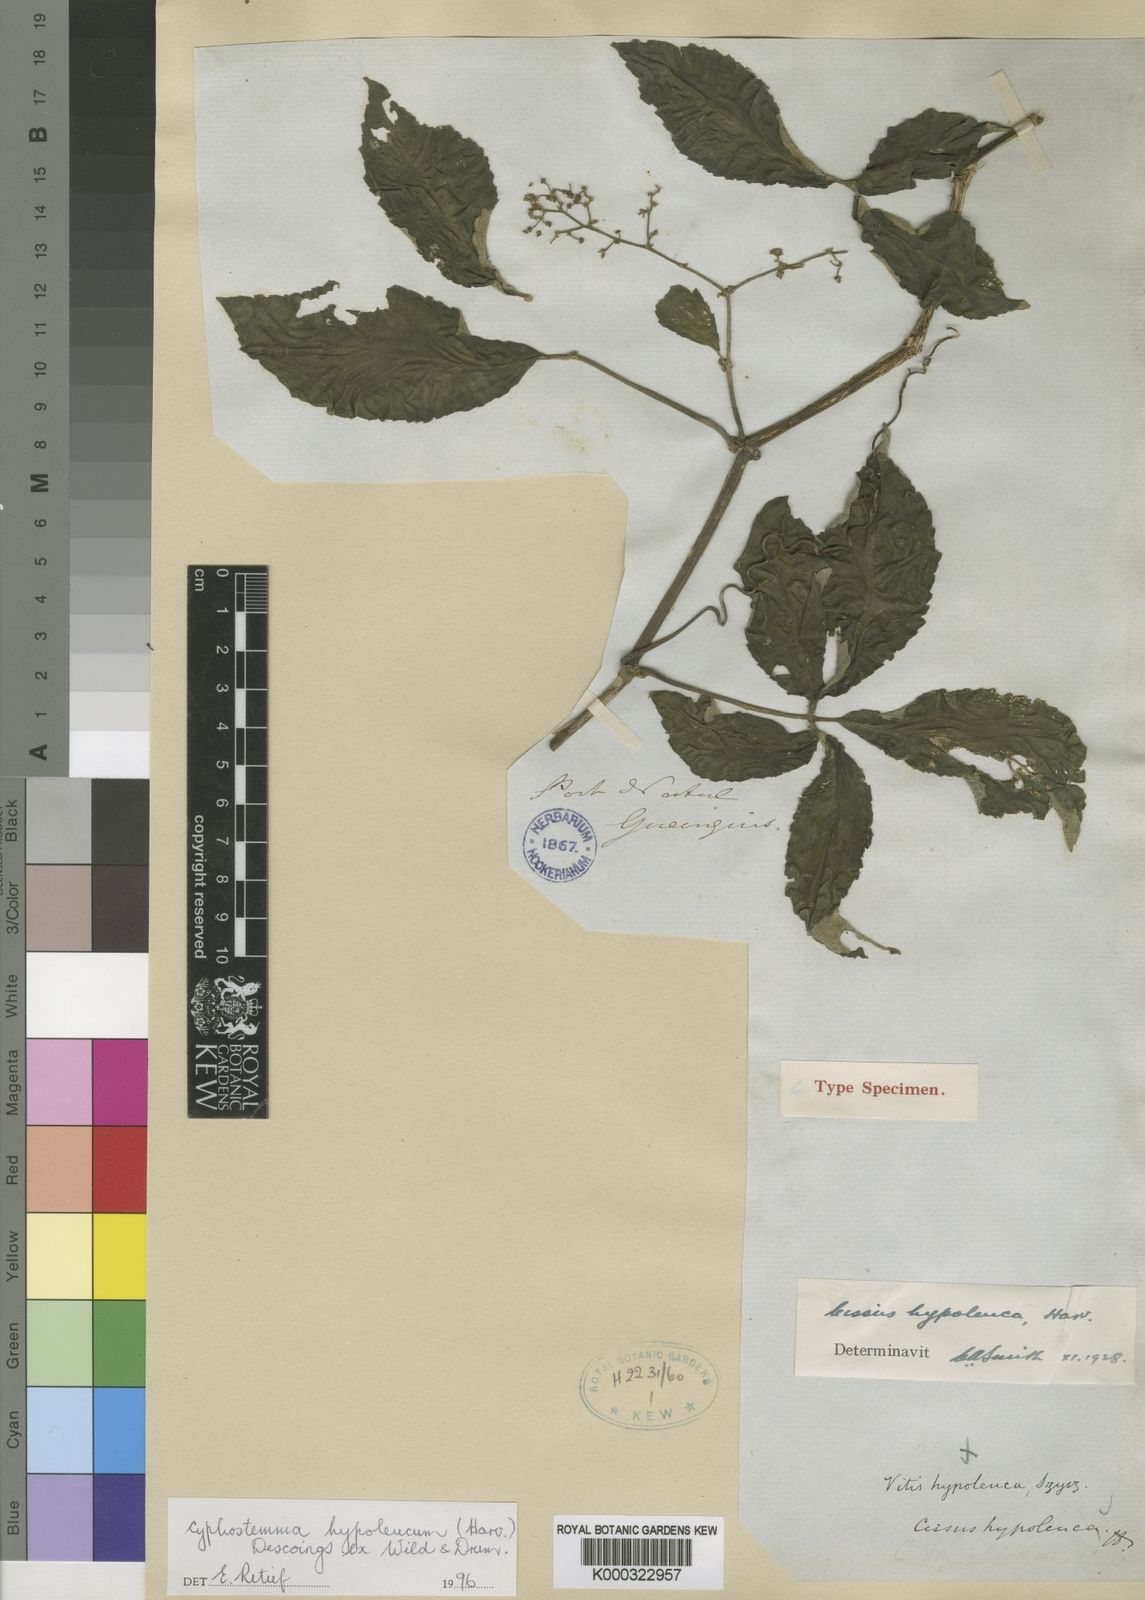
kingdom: Plantae
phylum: Tracheophyta
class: Magnoliopsida
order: Vitales
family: Vitaceae
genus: Cyphostemma
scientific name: Cyphostemma hypoleucum
